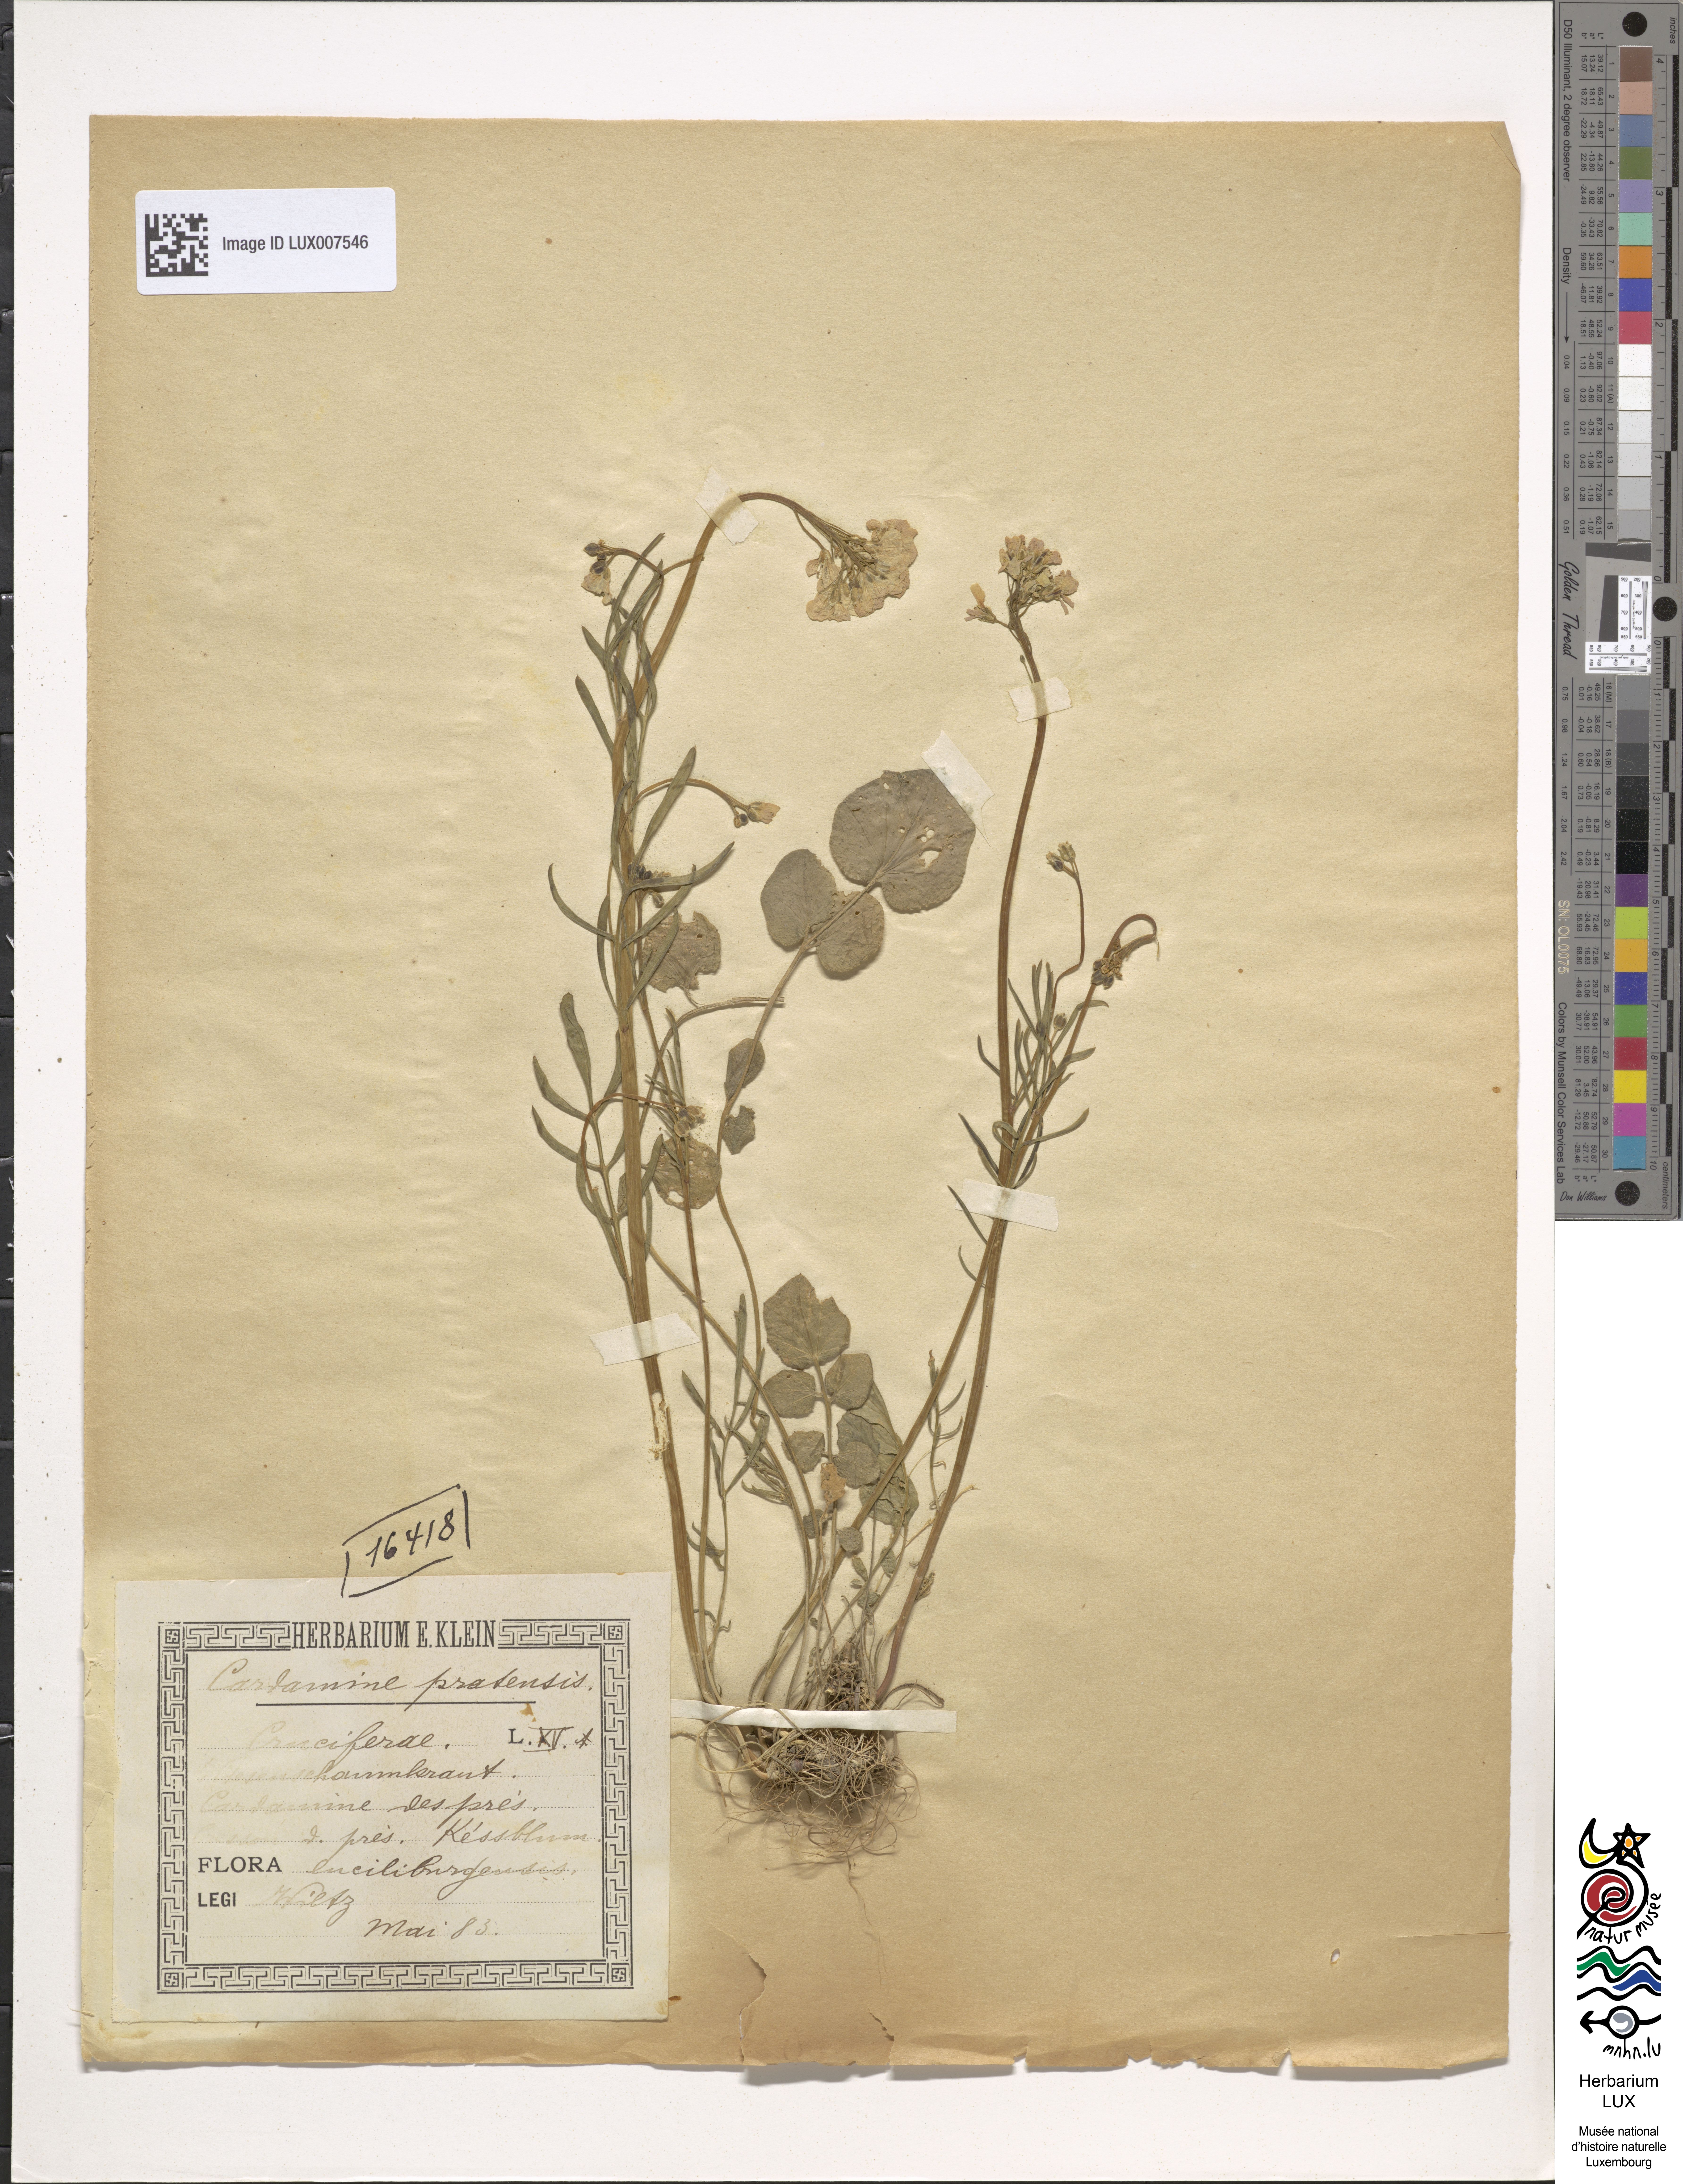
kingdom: Plantae
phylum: Tracheophyta
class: Magnoliopsida
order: Brassicales
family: Brassicaceae
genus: Cardamine
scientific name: Cardamine pratensis
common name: Cuckoo flower
